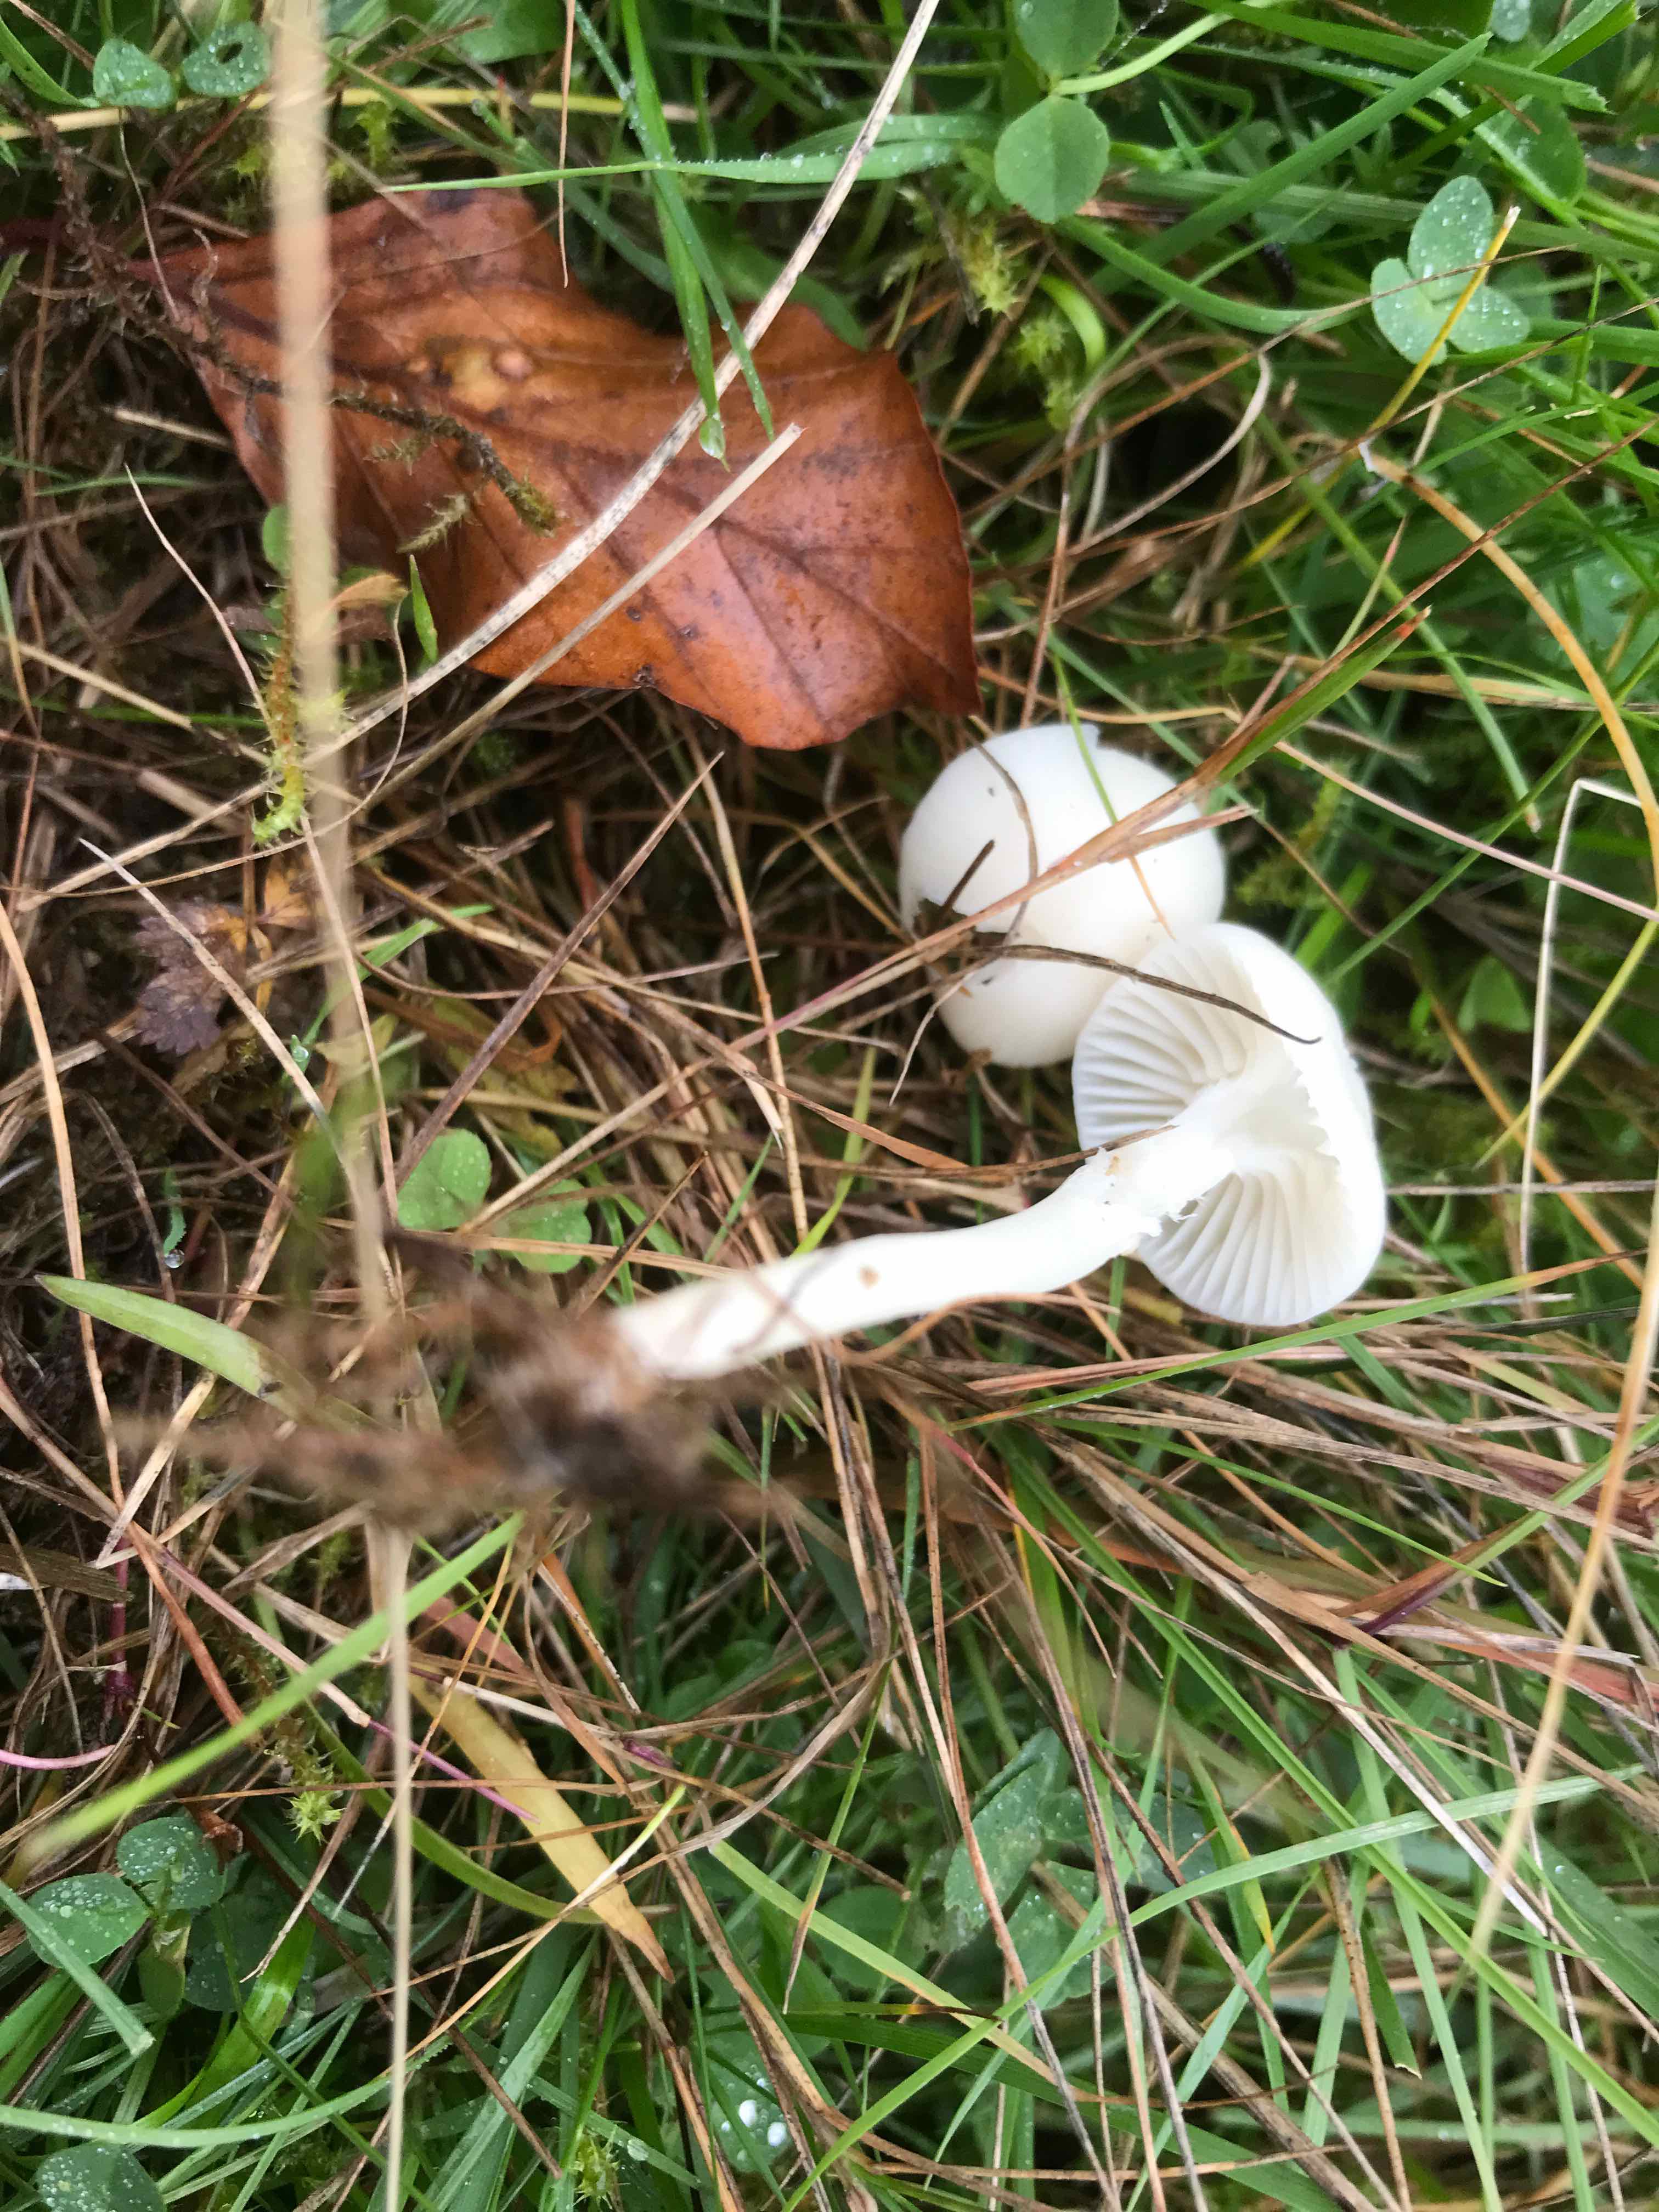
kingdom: Fungi
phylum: Basidiomycota
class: Agaricomycetes
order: Agaricales
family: Hygrophoraceae
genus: Cuphophyllus
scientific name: Cuphophyllus
